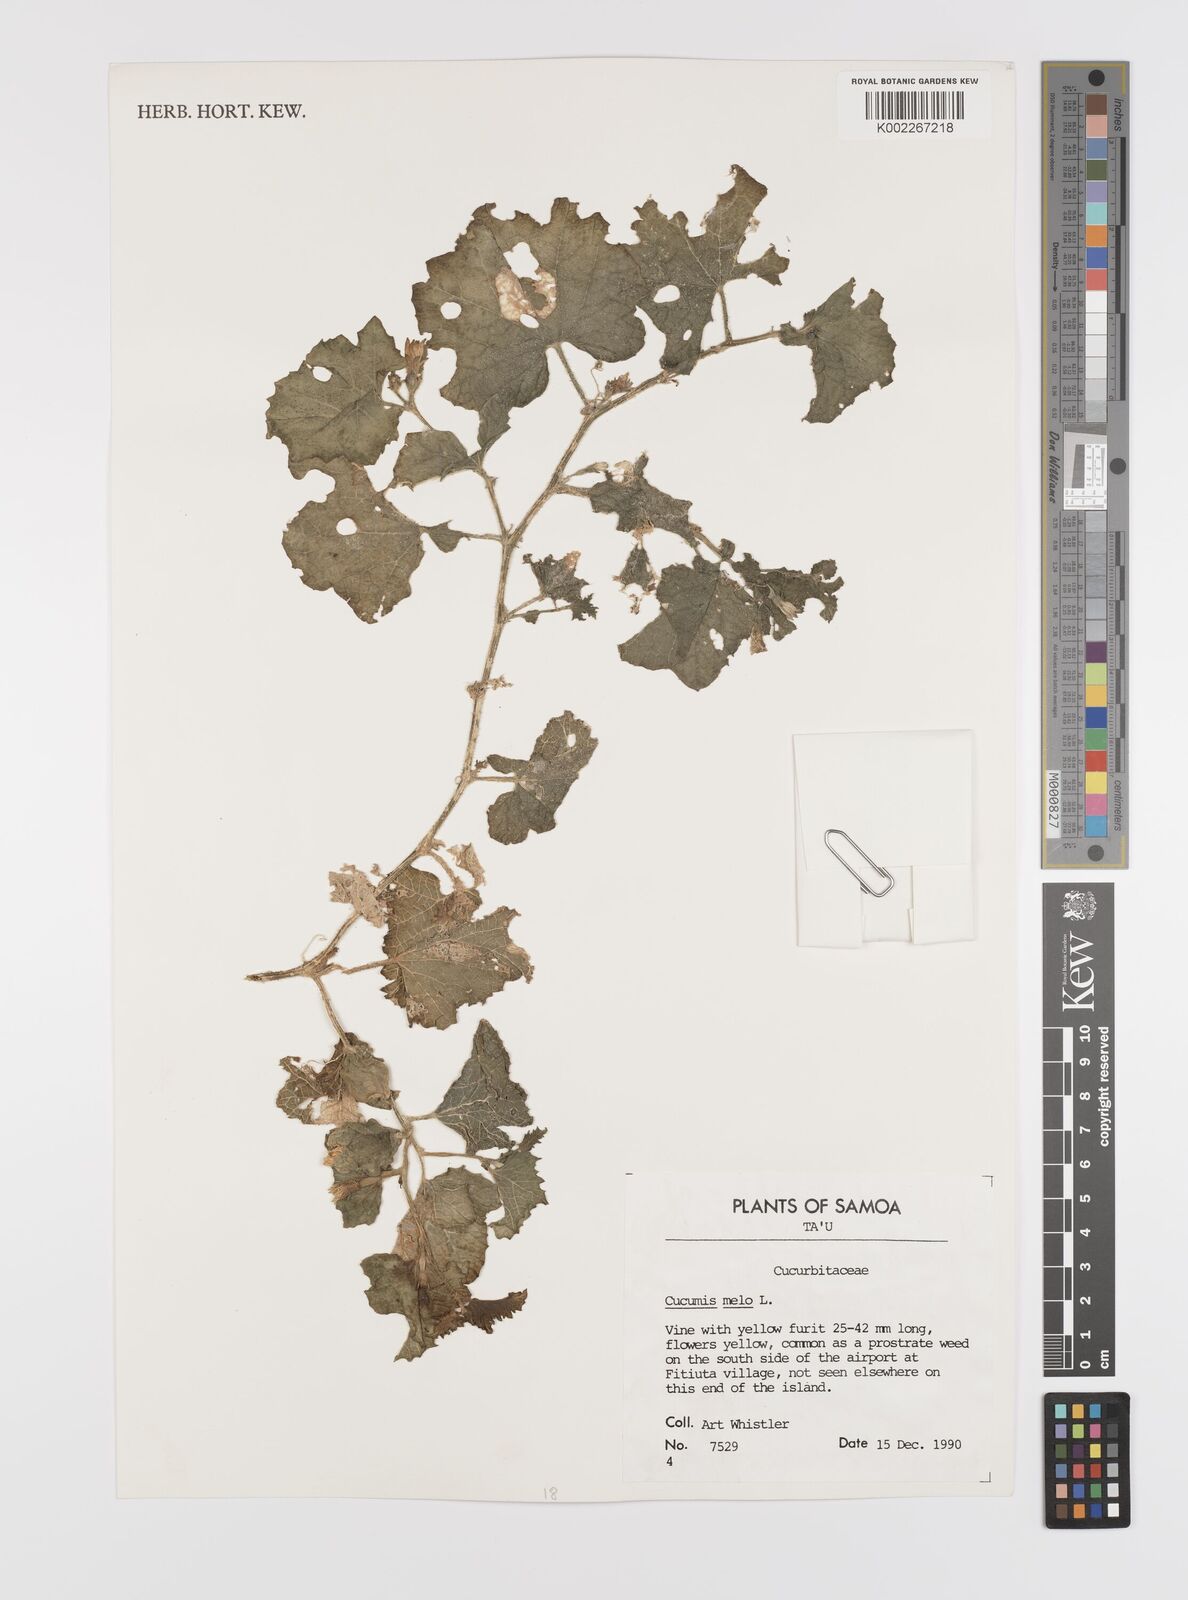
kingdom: Plantae
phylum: Tracheophyta
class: Magnoliopsida
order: Cucurbitales
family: Cucurbitaceae
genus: Cucumis
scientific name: Cucumis melo
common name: Melon
